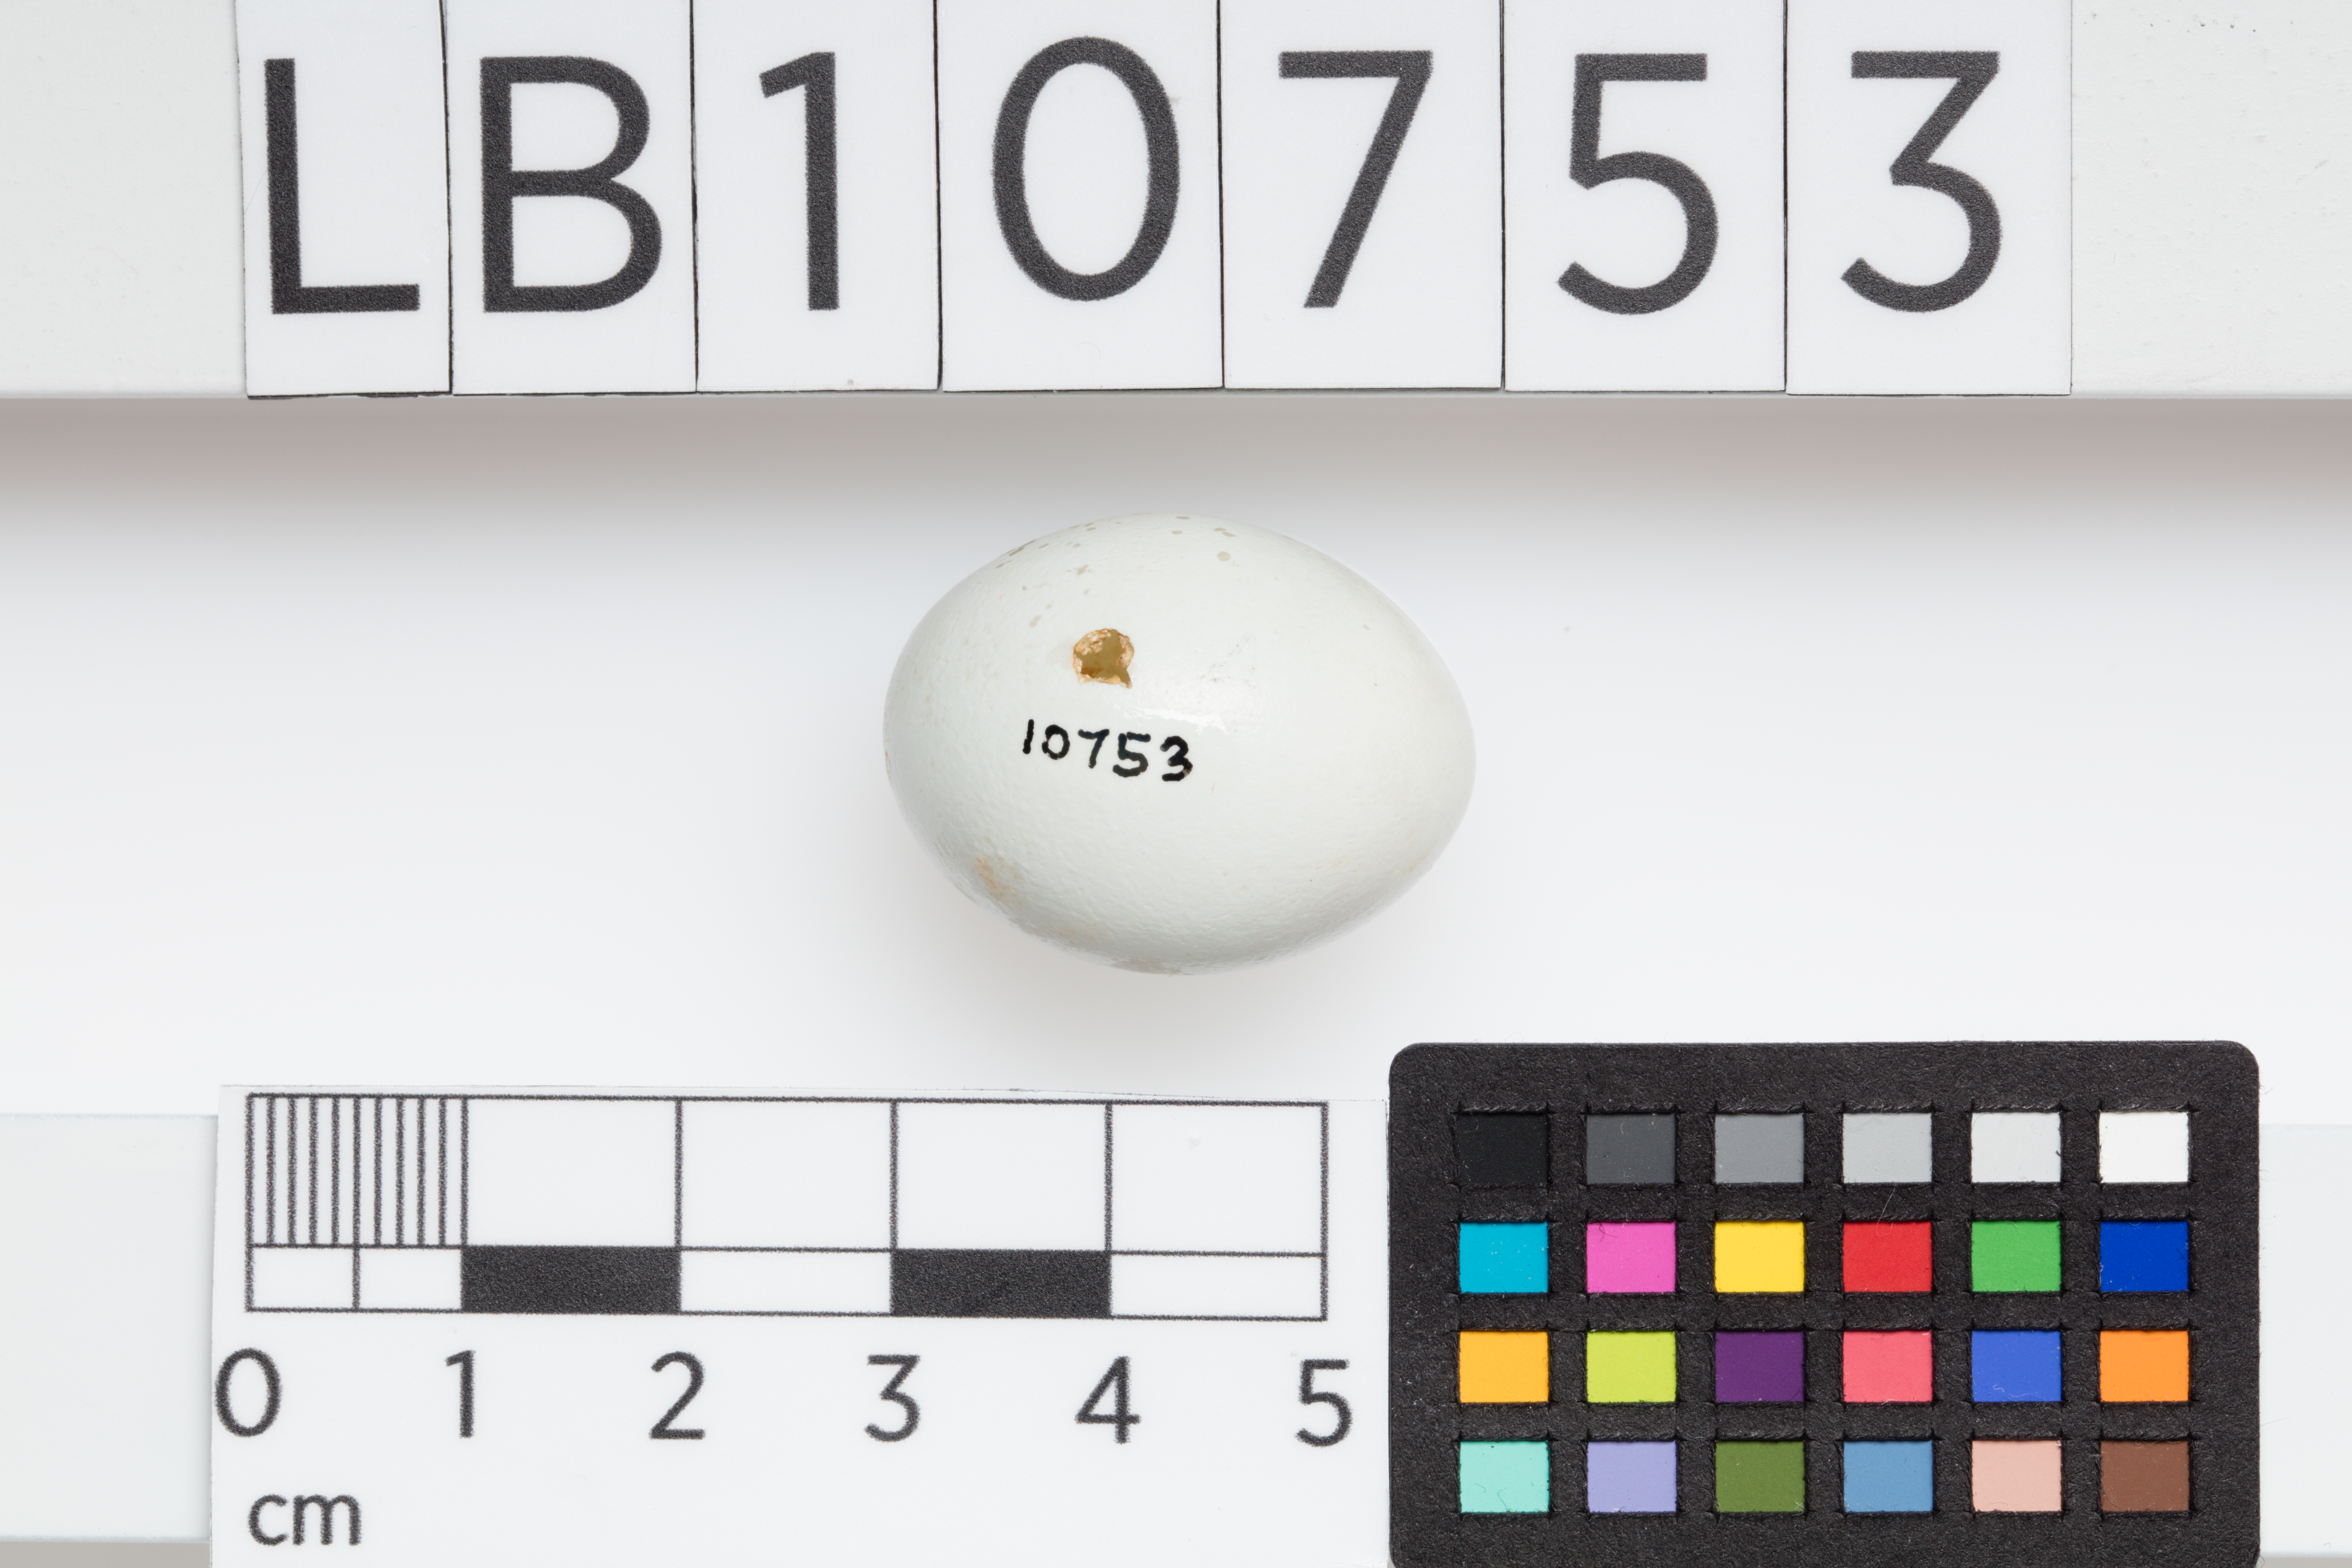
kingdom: Animalia
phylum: Chordata
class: Aves
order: Passeriformes
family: Sturnidae
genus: Sturnus
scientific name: Sturnus vulgaris
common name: Common starling
